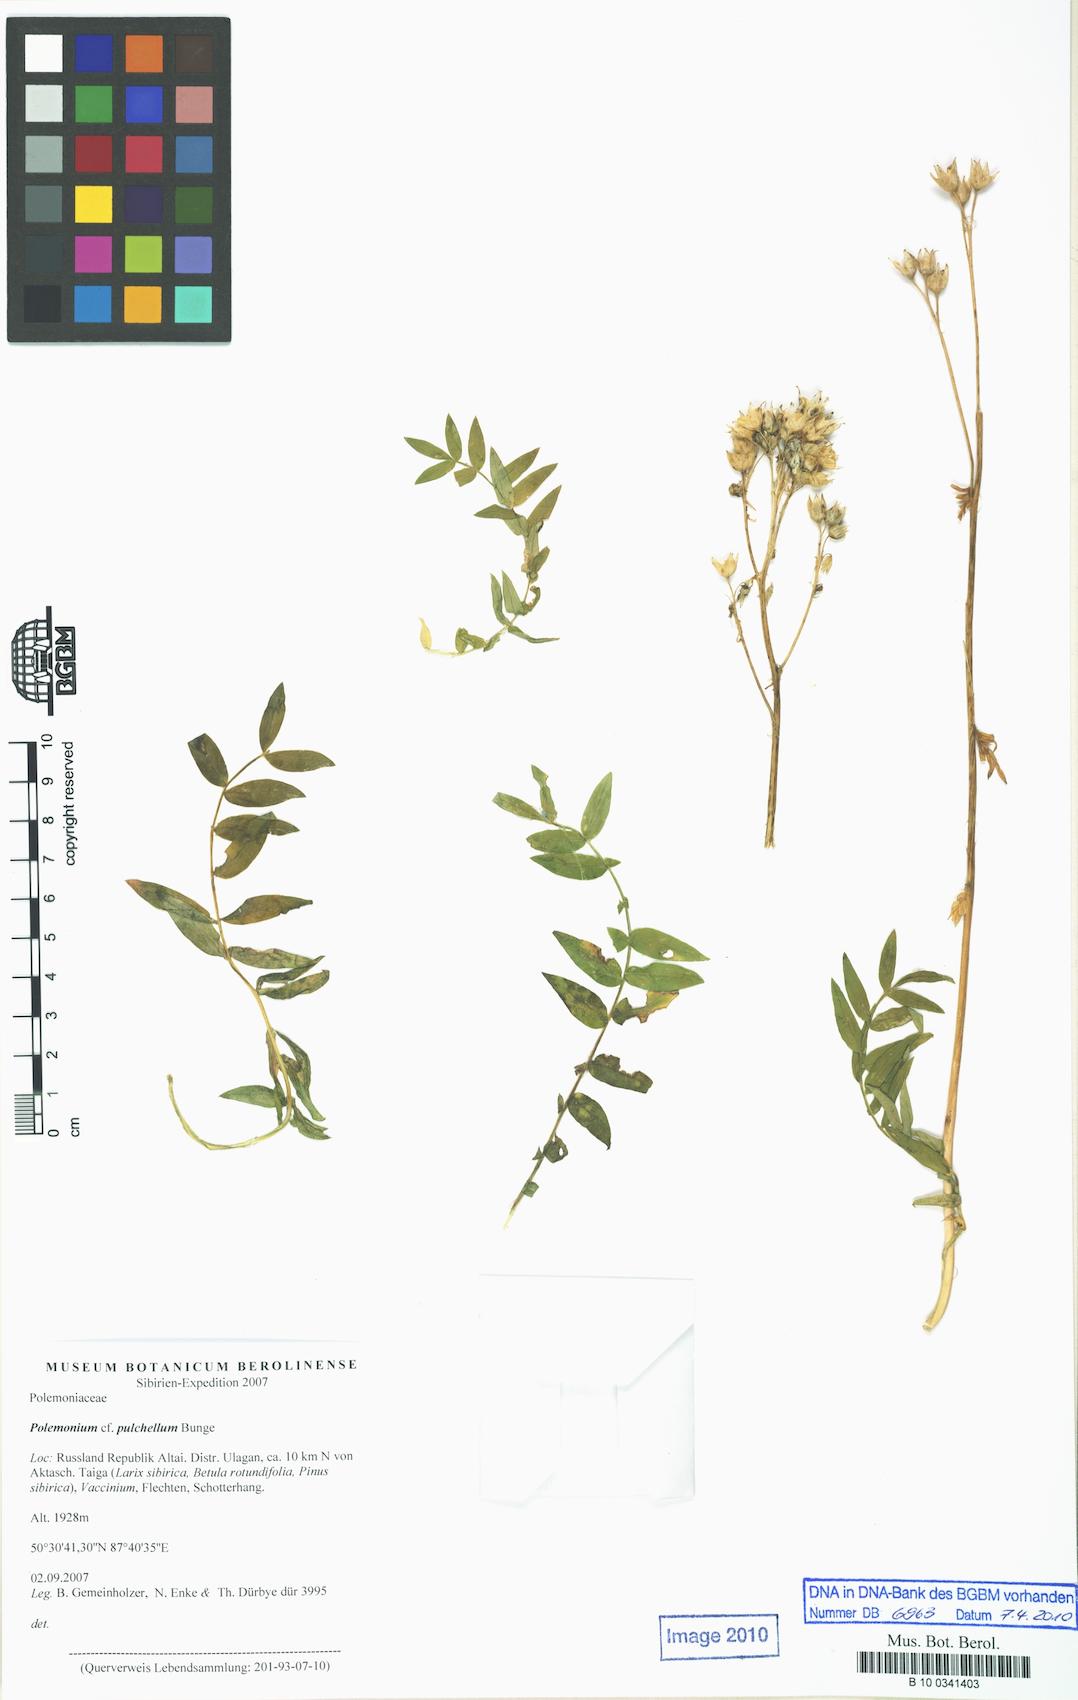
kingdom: Plantae
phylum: Tracheophyta
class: Magnoliopsida
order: Ericales
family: Polemoniaceae
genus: Polemonium
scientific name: Polemonium pulchellum
